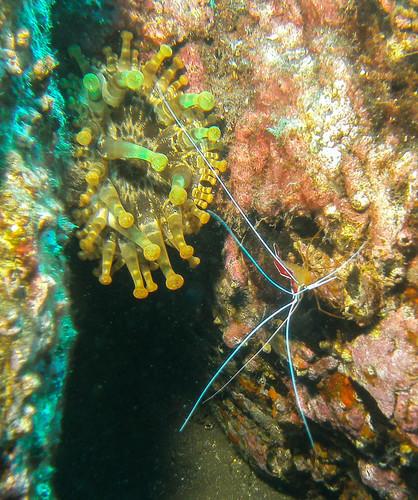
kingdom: Animalia
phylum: Cnidaria
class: Anthozoa
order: Actiniaria
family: Andvakiidae
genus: Telmatactis
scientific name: Telmatactis cricoides
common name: Blunt-tentacled anemone
